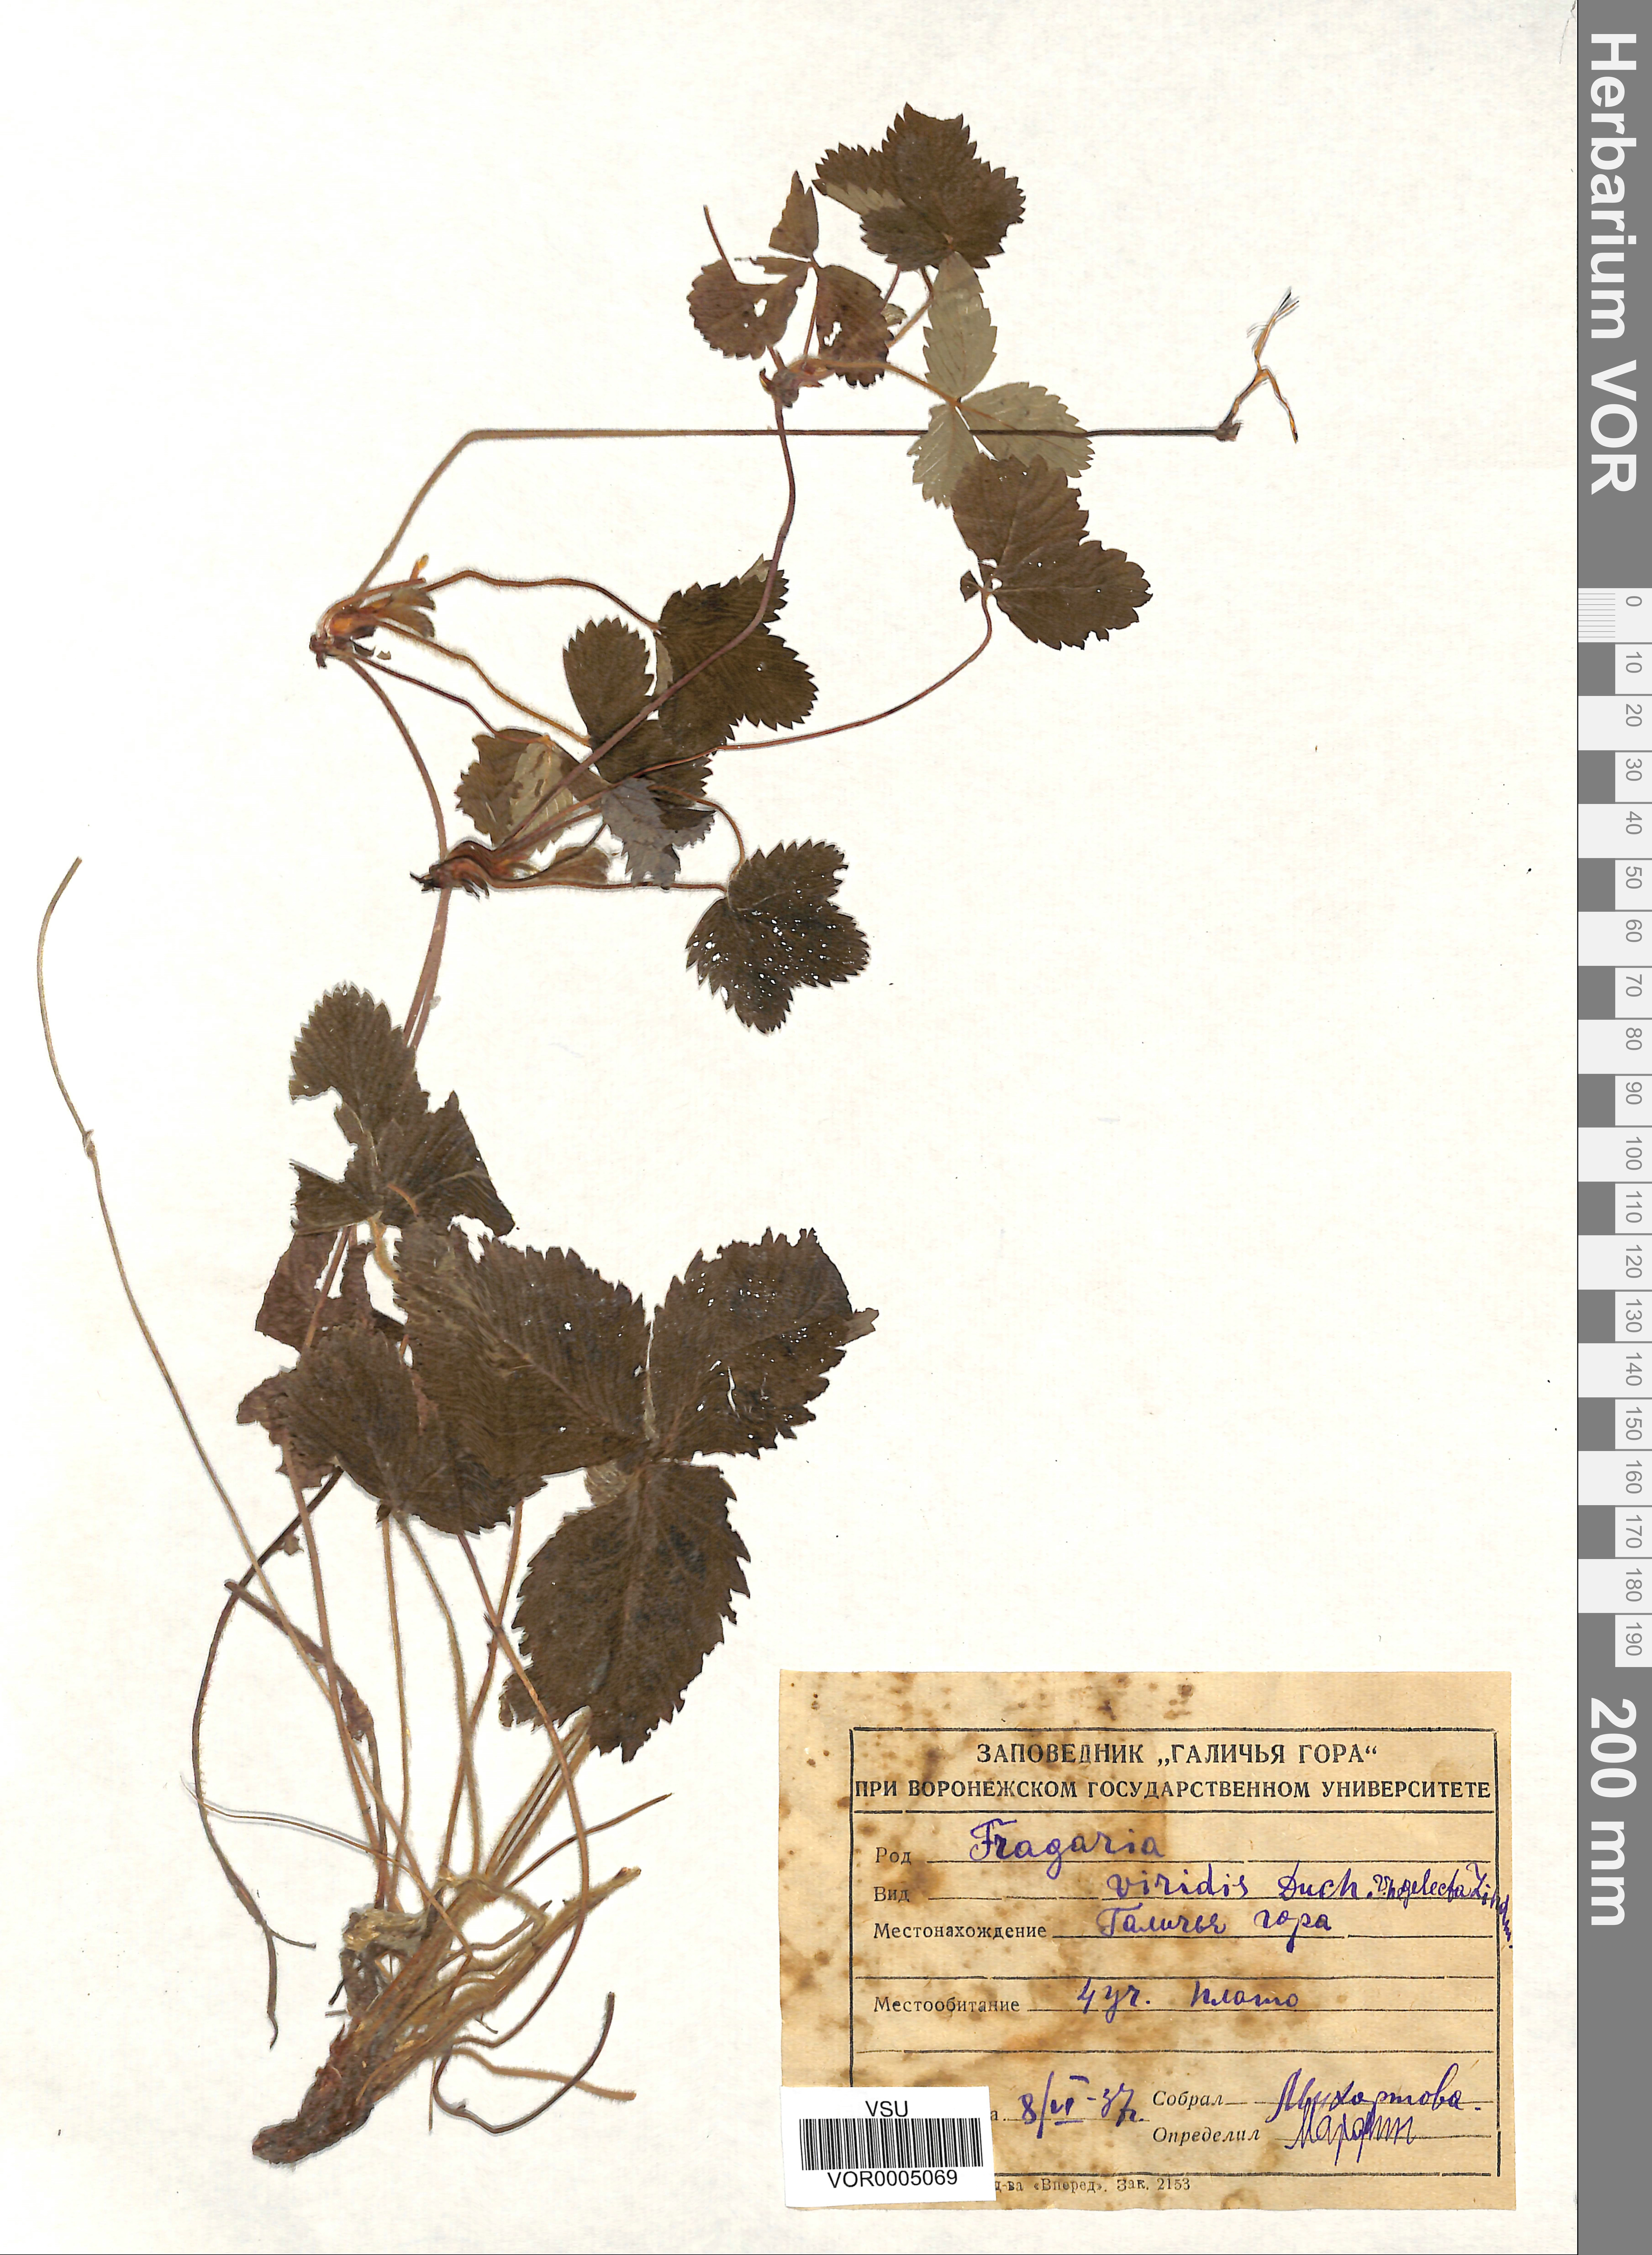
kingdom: Plantae
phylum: Tracheophyta
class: Magnoliopsida
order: Rosales
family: Rosaceae
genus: Fragaria
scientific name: Fragaria viridis
